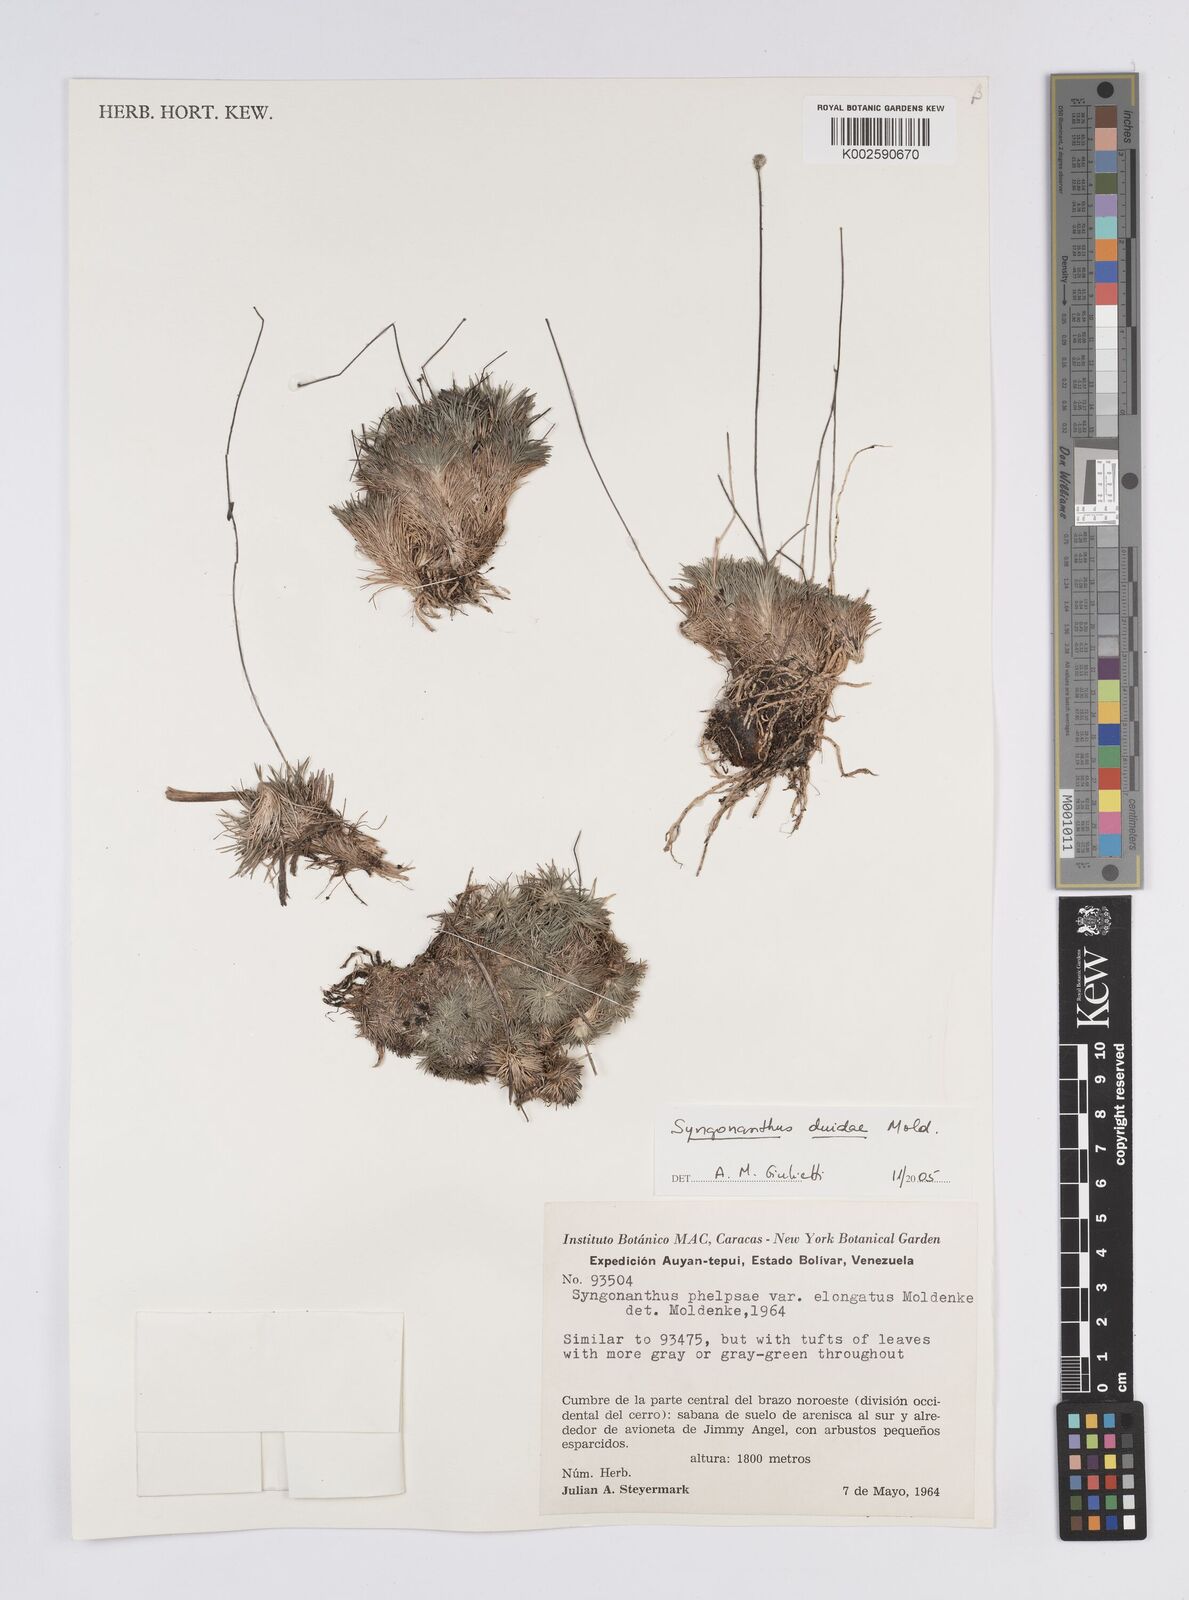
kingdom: Plantae
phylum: Tracheophyta
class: Liliopsida
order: Poales
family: Eriocaulaceae
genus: Syngonanthus
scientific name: Syngonanthus duidae
